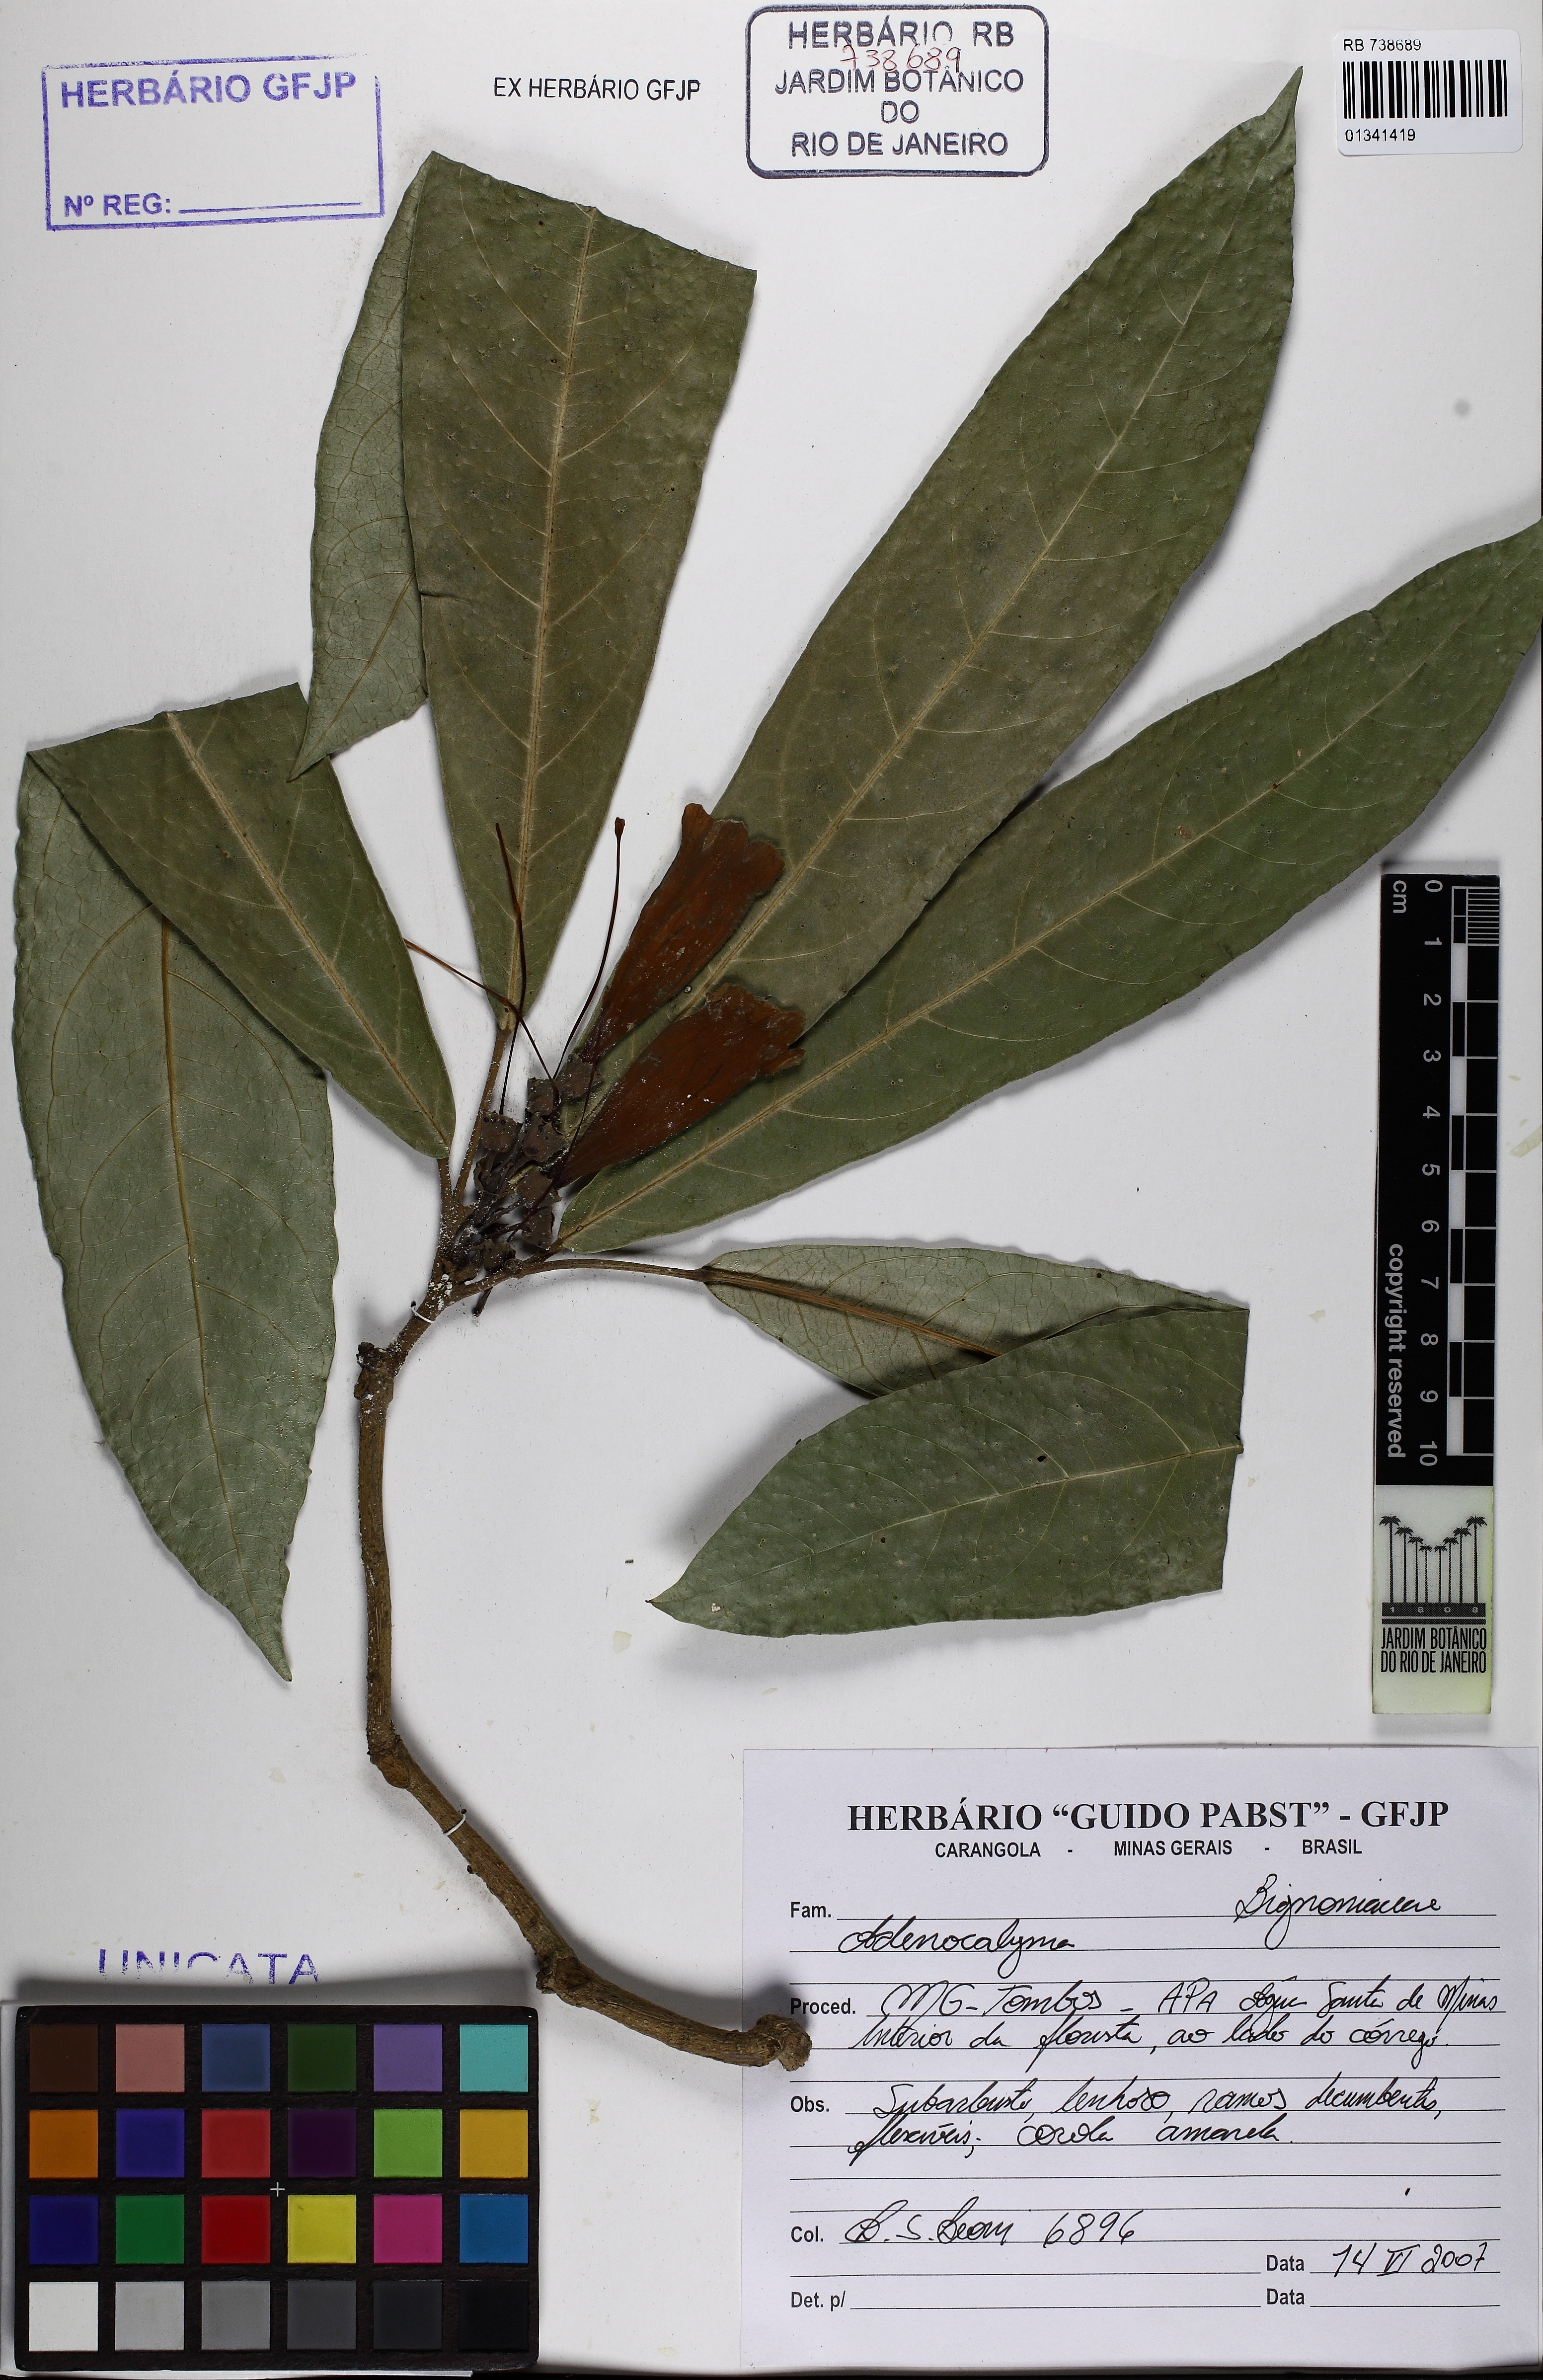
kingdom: Plantae
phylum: Tracheophyta
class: Magnoliopsida
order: Lamiales
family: Bignoniaceae
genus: Adenocalymma
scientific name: Adenocalymma
